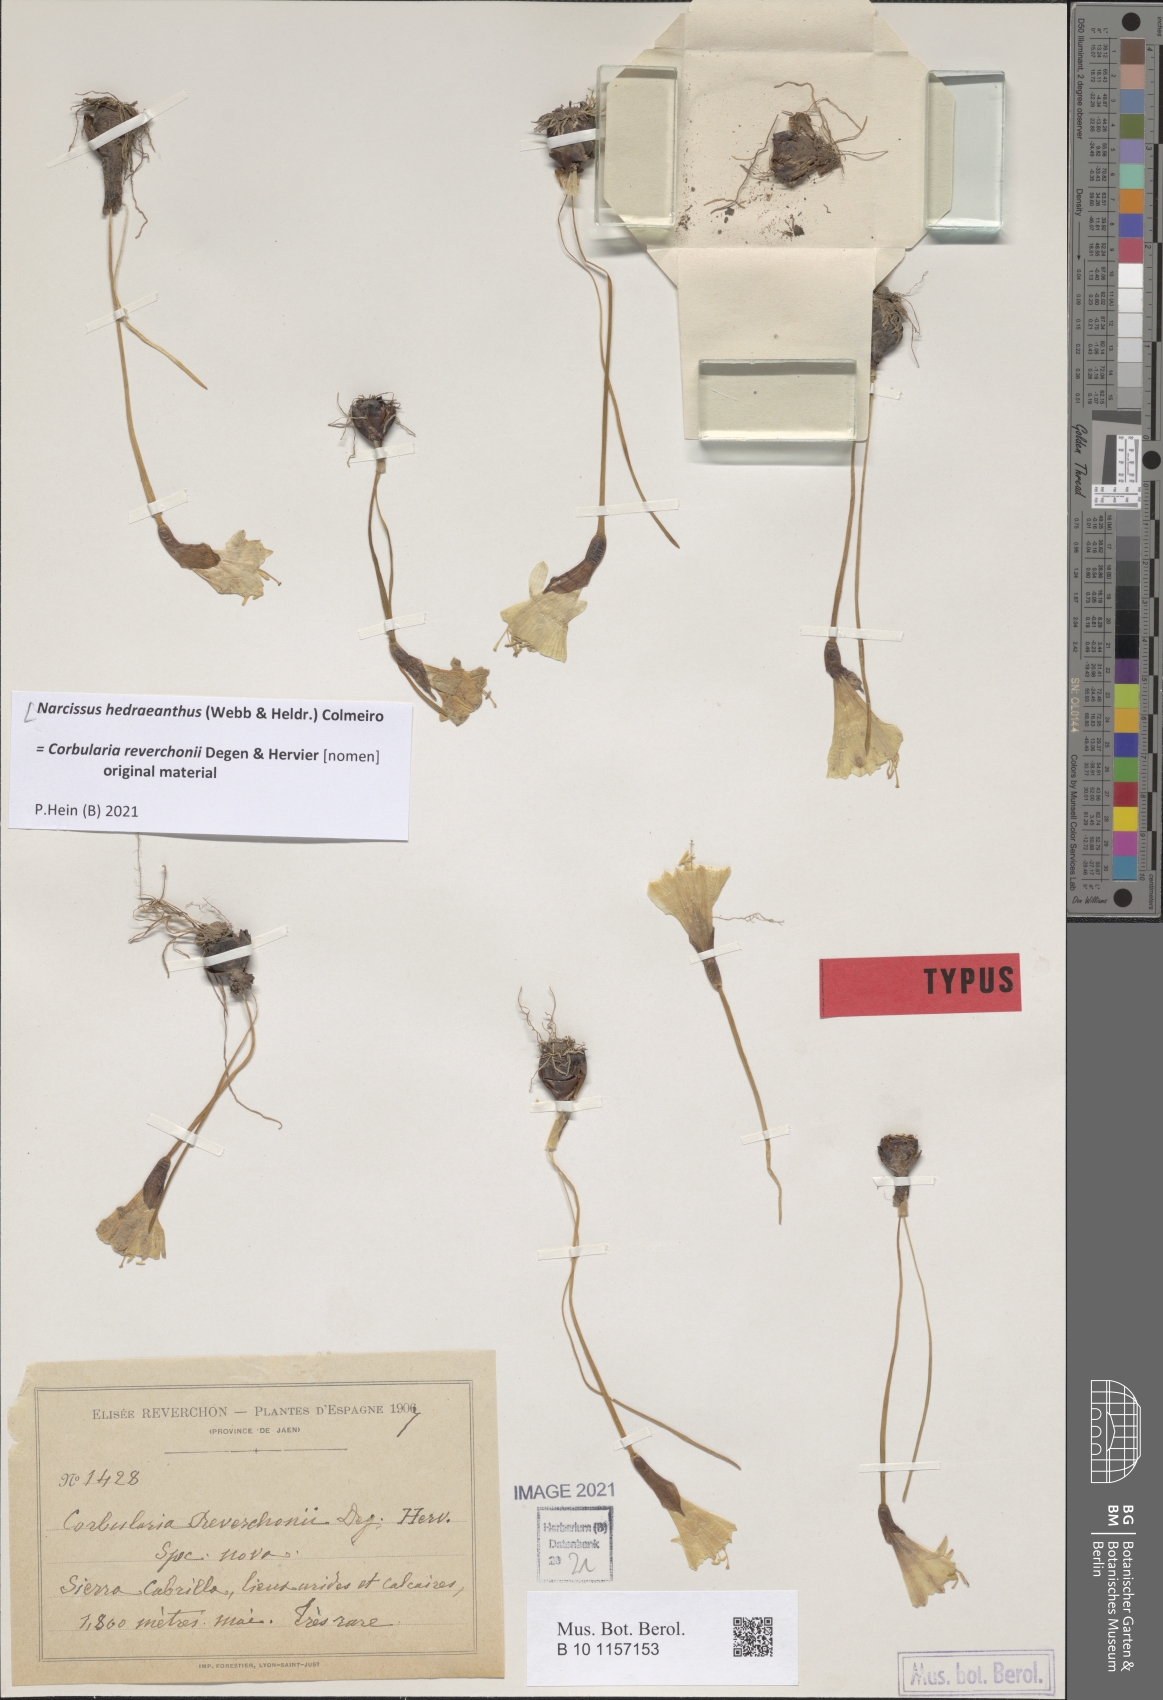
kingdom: Plantae
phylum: Tracheophyta
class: Liliopsida
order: Asparagales
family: Amaryllidaceae
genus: Narcissus
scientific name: Narcissus hedraeanthus
